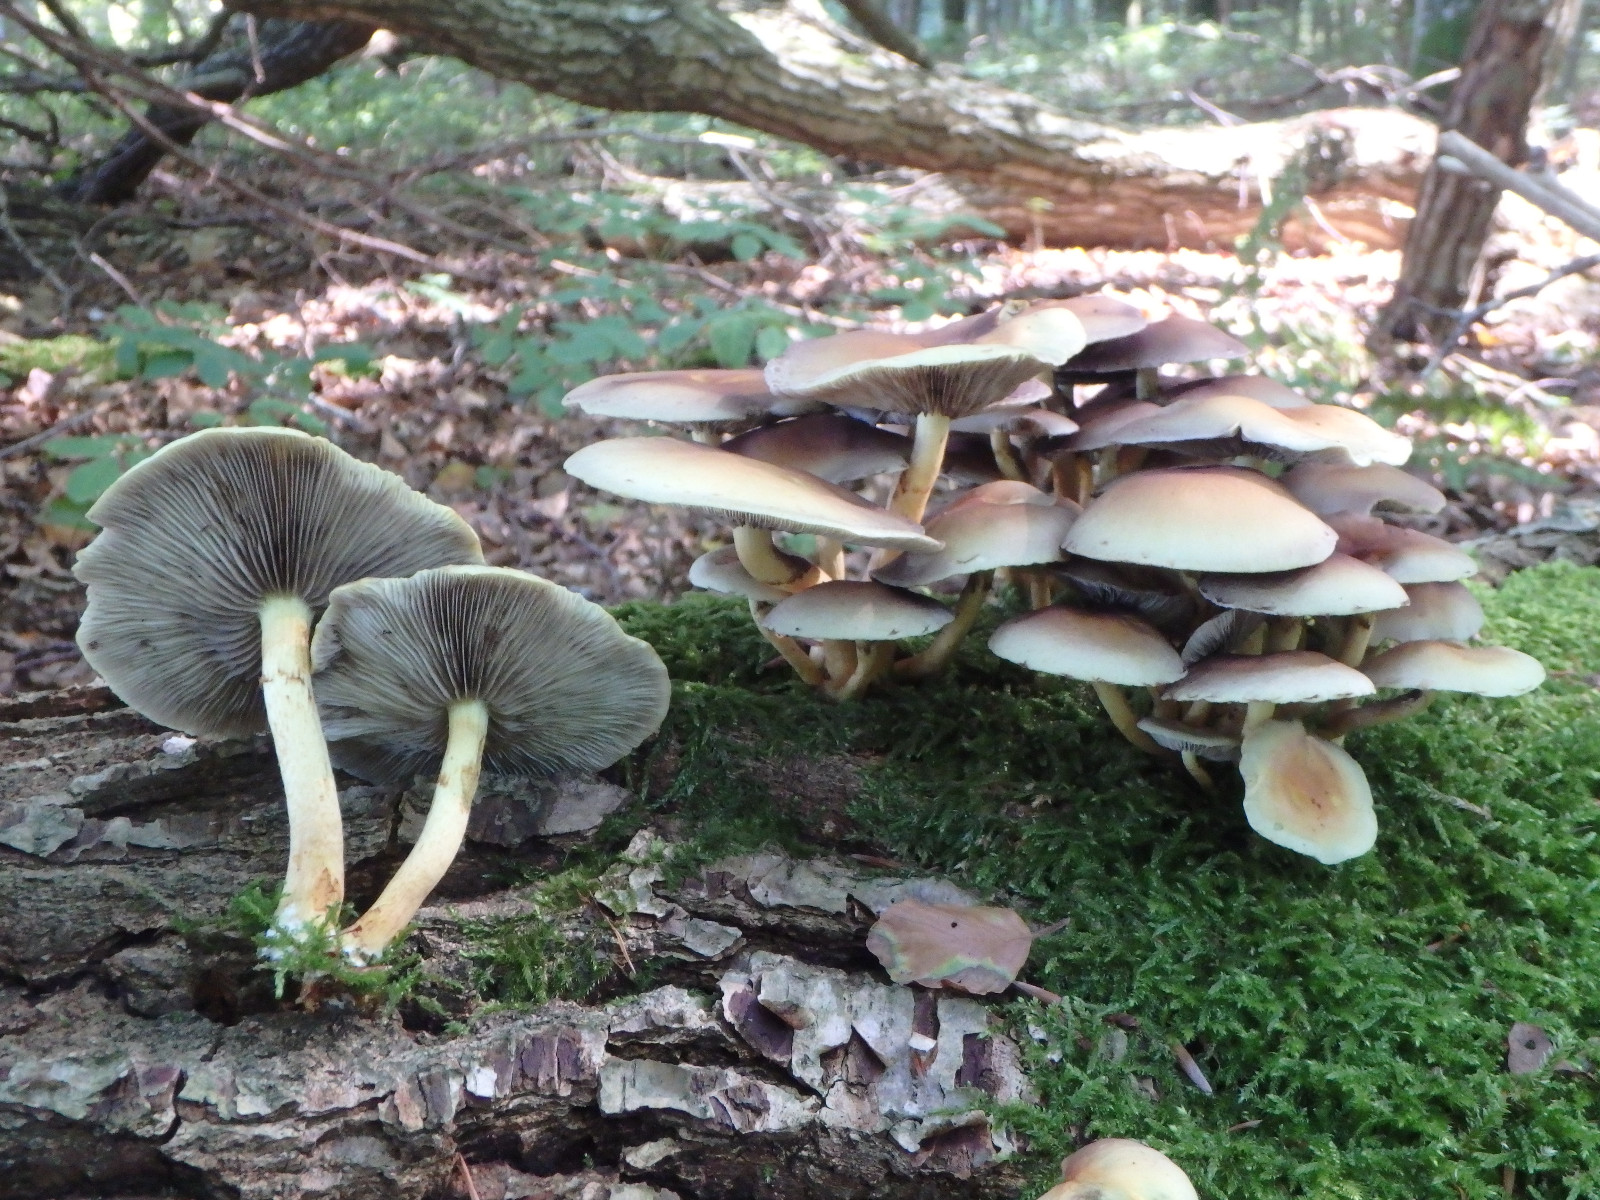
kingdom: Fungi
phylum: Basidiomycota
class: Agaricomycetes
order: Agaricales
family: Strophariaceae
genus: Hypholoma
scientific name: Hypholoma fasciculare
